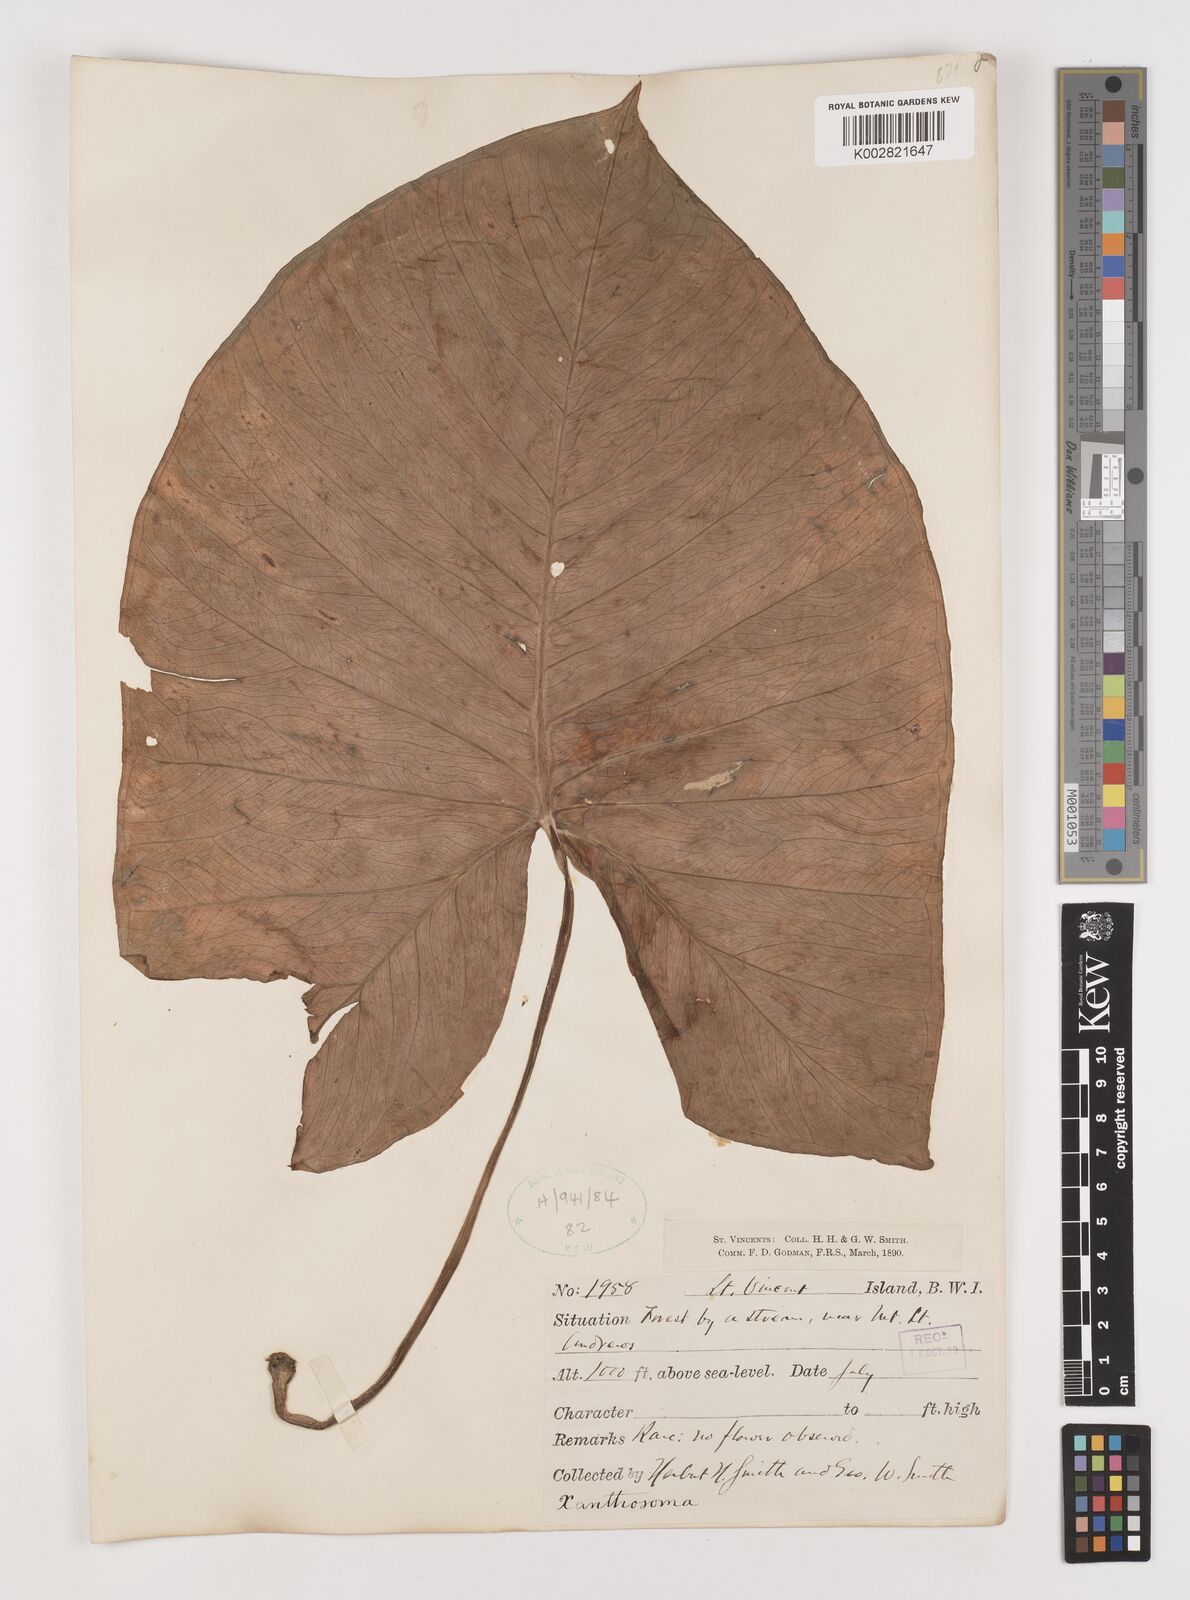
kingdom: Plantae
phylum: Tracheophyta
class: Liliopsida
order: Alismatales
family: Araceae
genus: Xanthosoma
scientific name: Xanthosoma
